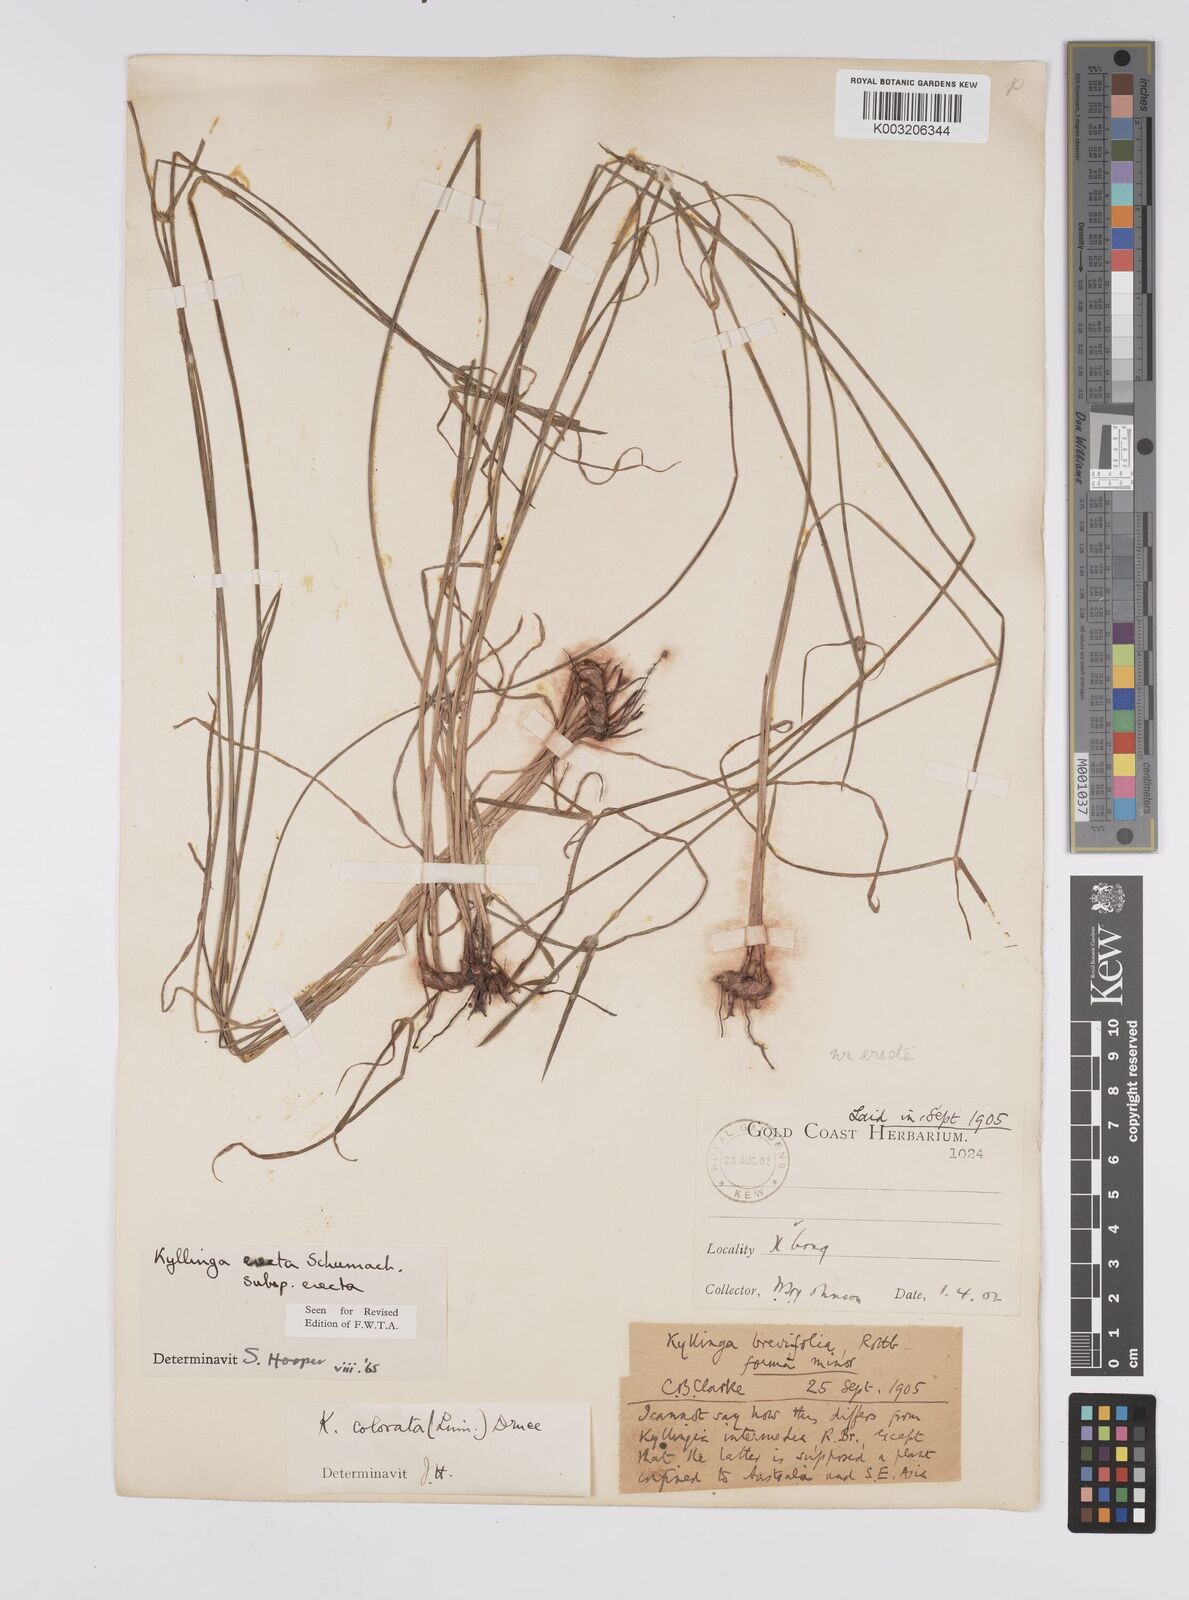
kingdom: Plantae
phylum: Tracheophyta
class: Liliopsida
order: Poales
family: Cyperaceae
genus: Cyperus
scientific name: Cyperus erectus
